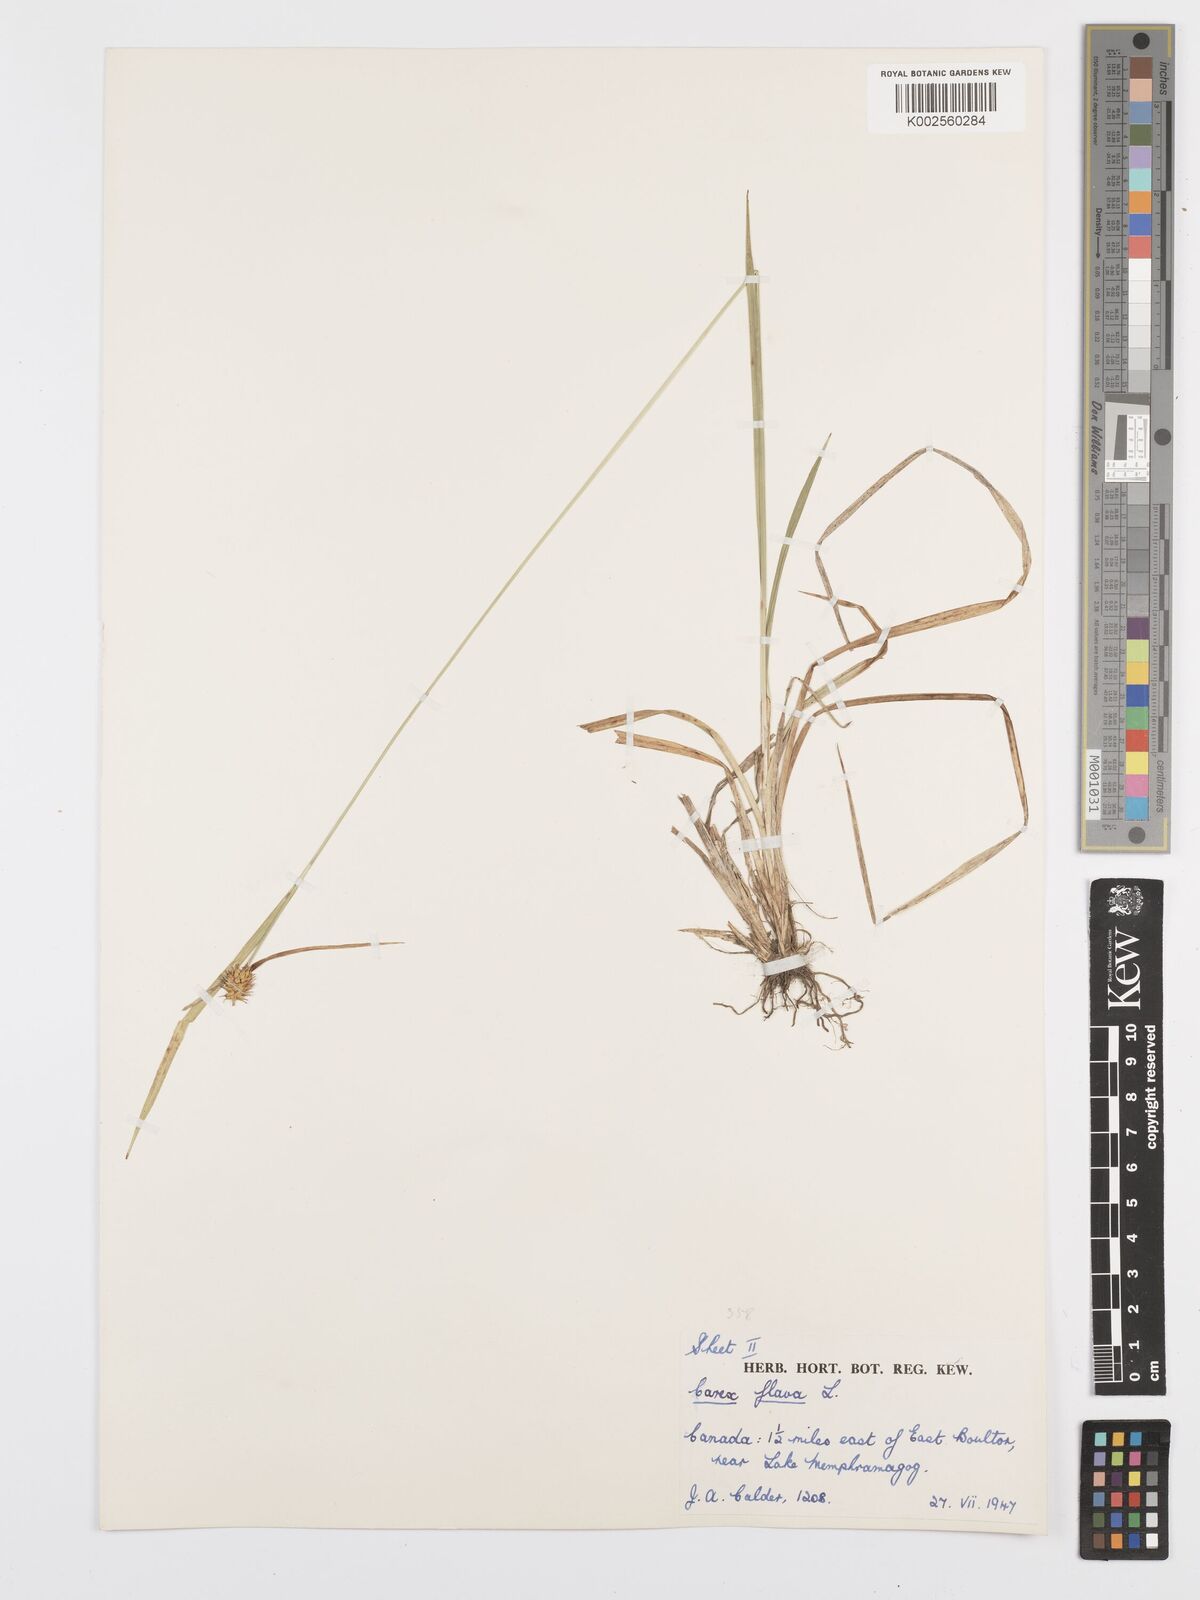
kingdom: Plantae
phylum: Tracheophyta
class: Liliopsida
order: Poales
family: Cyperaceae
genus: Carex
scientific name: Carex flava
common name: Large yellow-sedge
